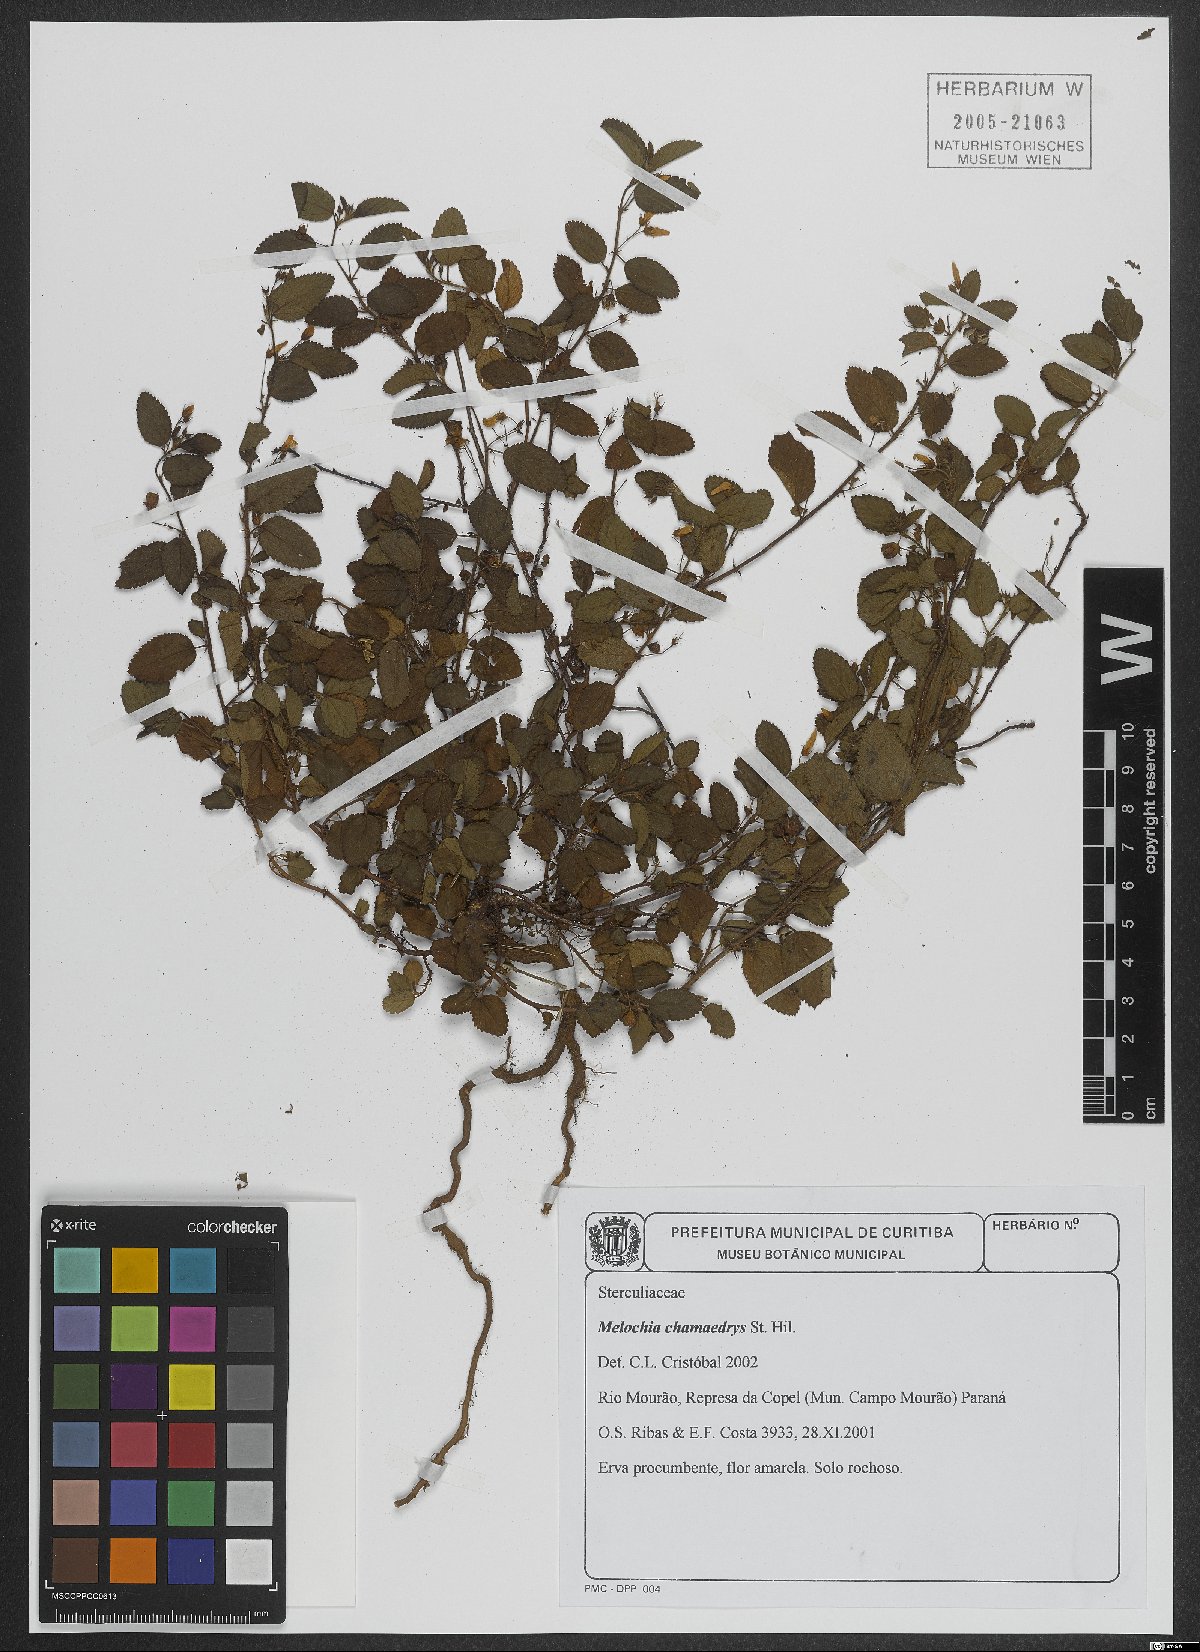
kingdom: Plantae
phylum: Tracheophyta
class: Magnoliopsida
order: Malvales
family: Malvaceae
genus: Melochia
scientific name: Melochia chamaedrys
